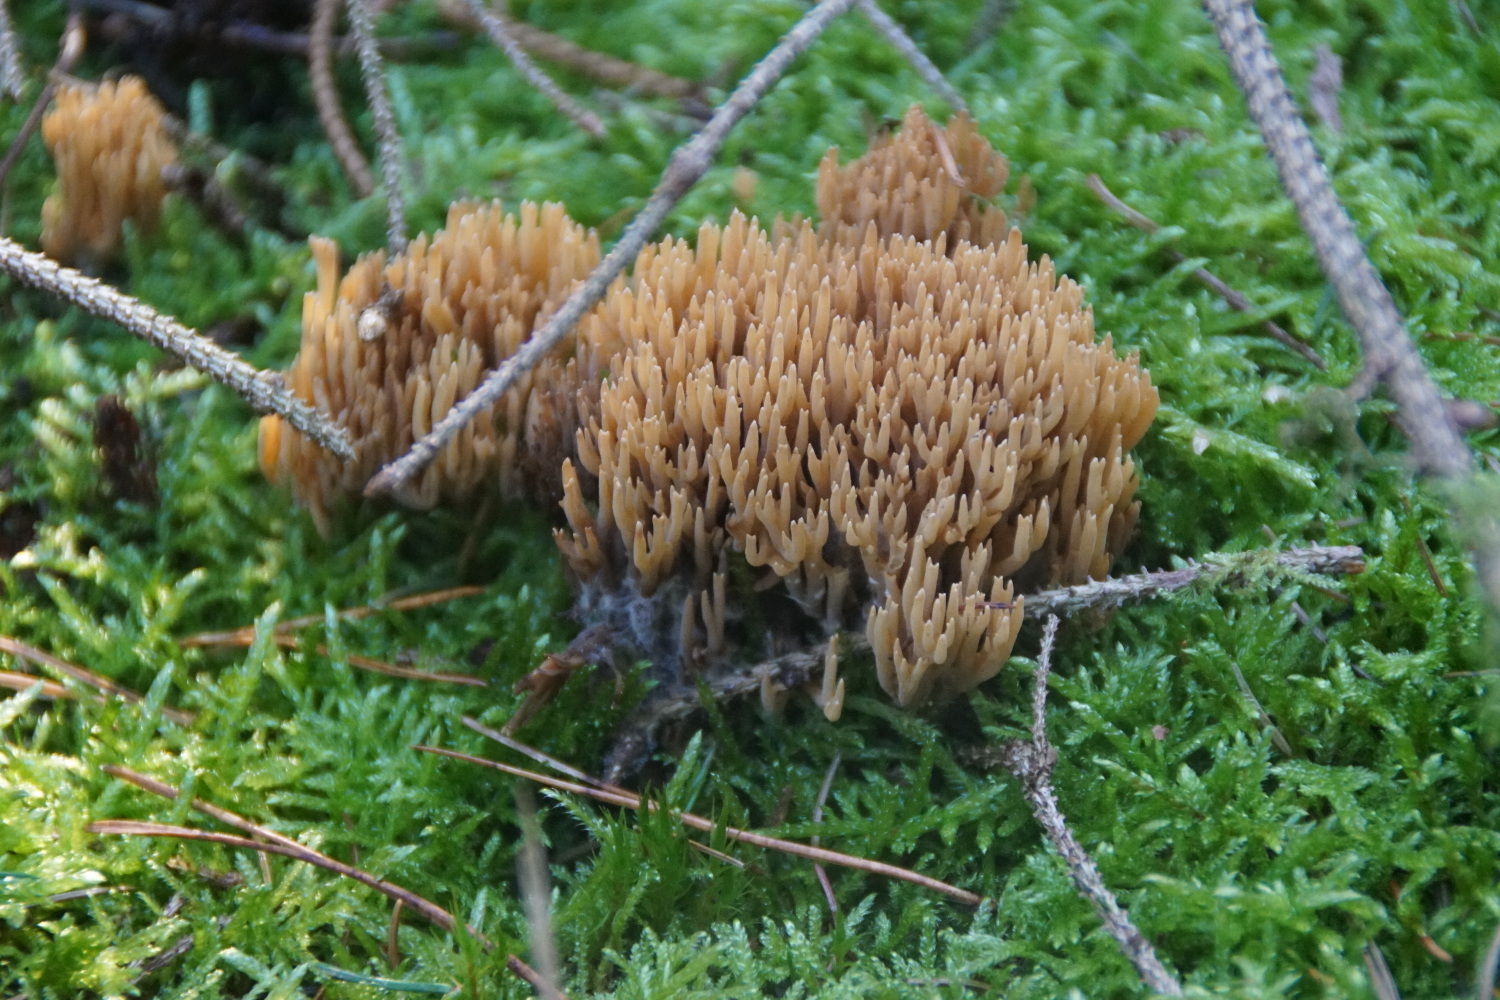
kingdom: Fungi
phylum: Basidiomycota
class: Agaricomycetes
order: Gomphales
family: Gomphaceae
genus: Phaeoclavulina
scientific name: Phaeoclavulina eumorpha
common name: gran-koralsvamp
